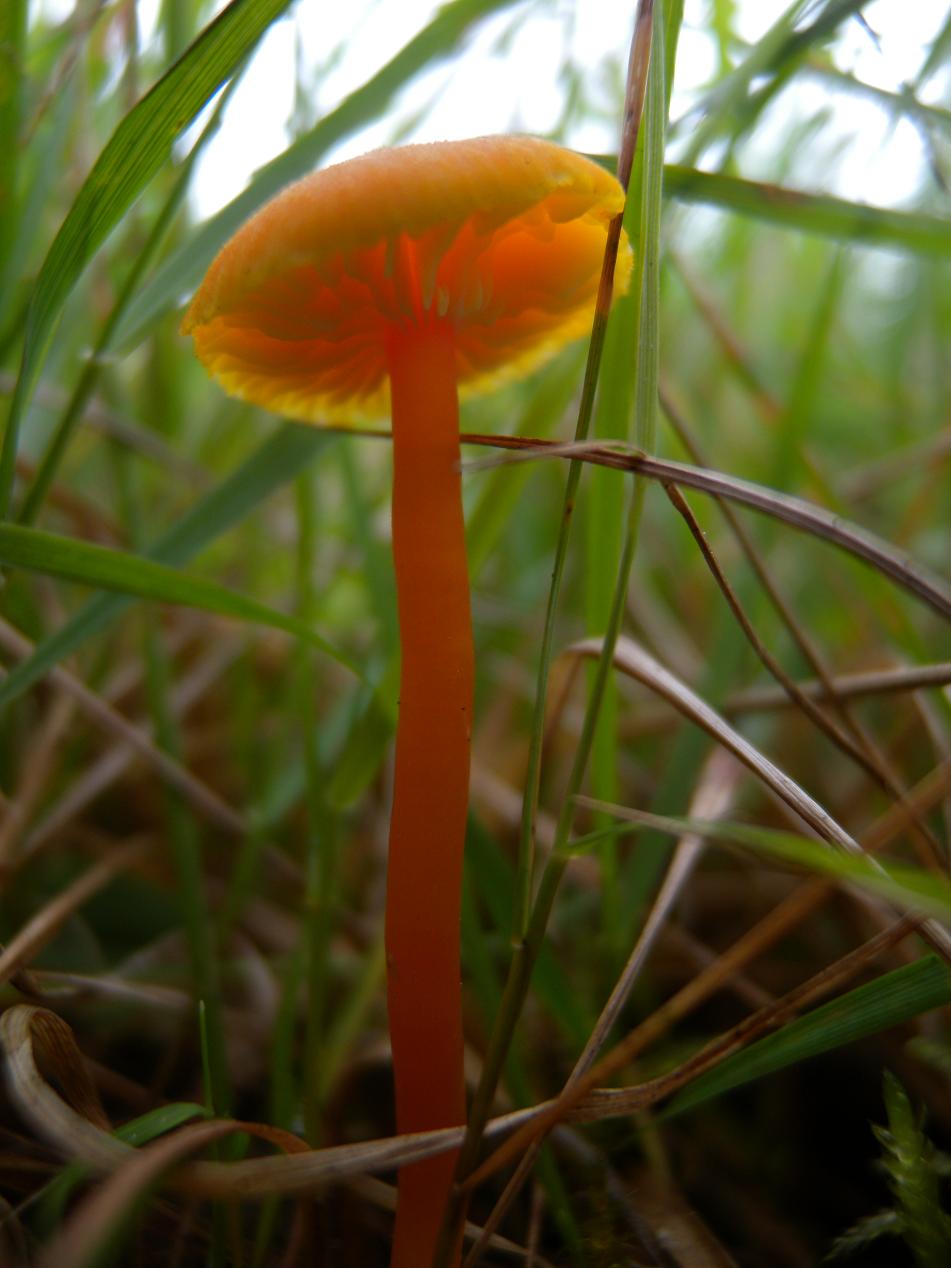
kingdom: Fungi
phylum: Basidiomycota
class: Agaricomycetes
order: Agaricales
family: Hygrophoraceae
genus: Hygrocybe
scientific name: Hygrocybe miniata
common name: mønje-vokshat
